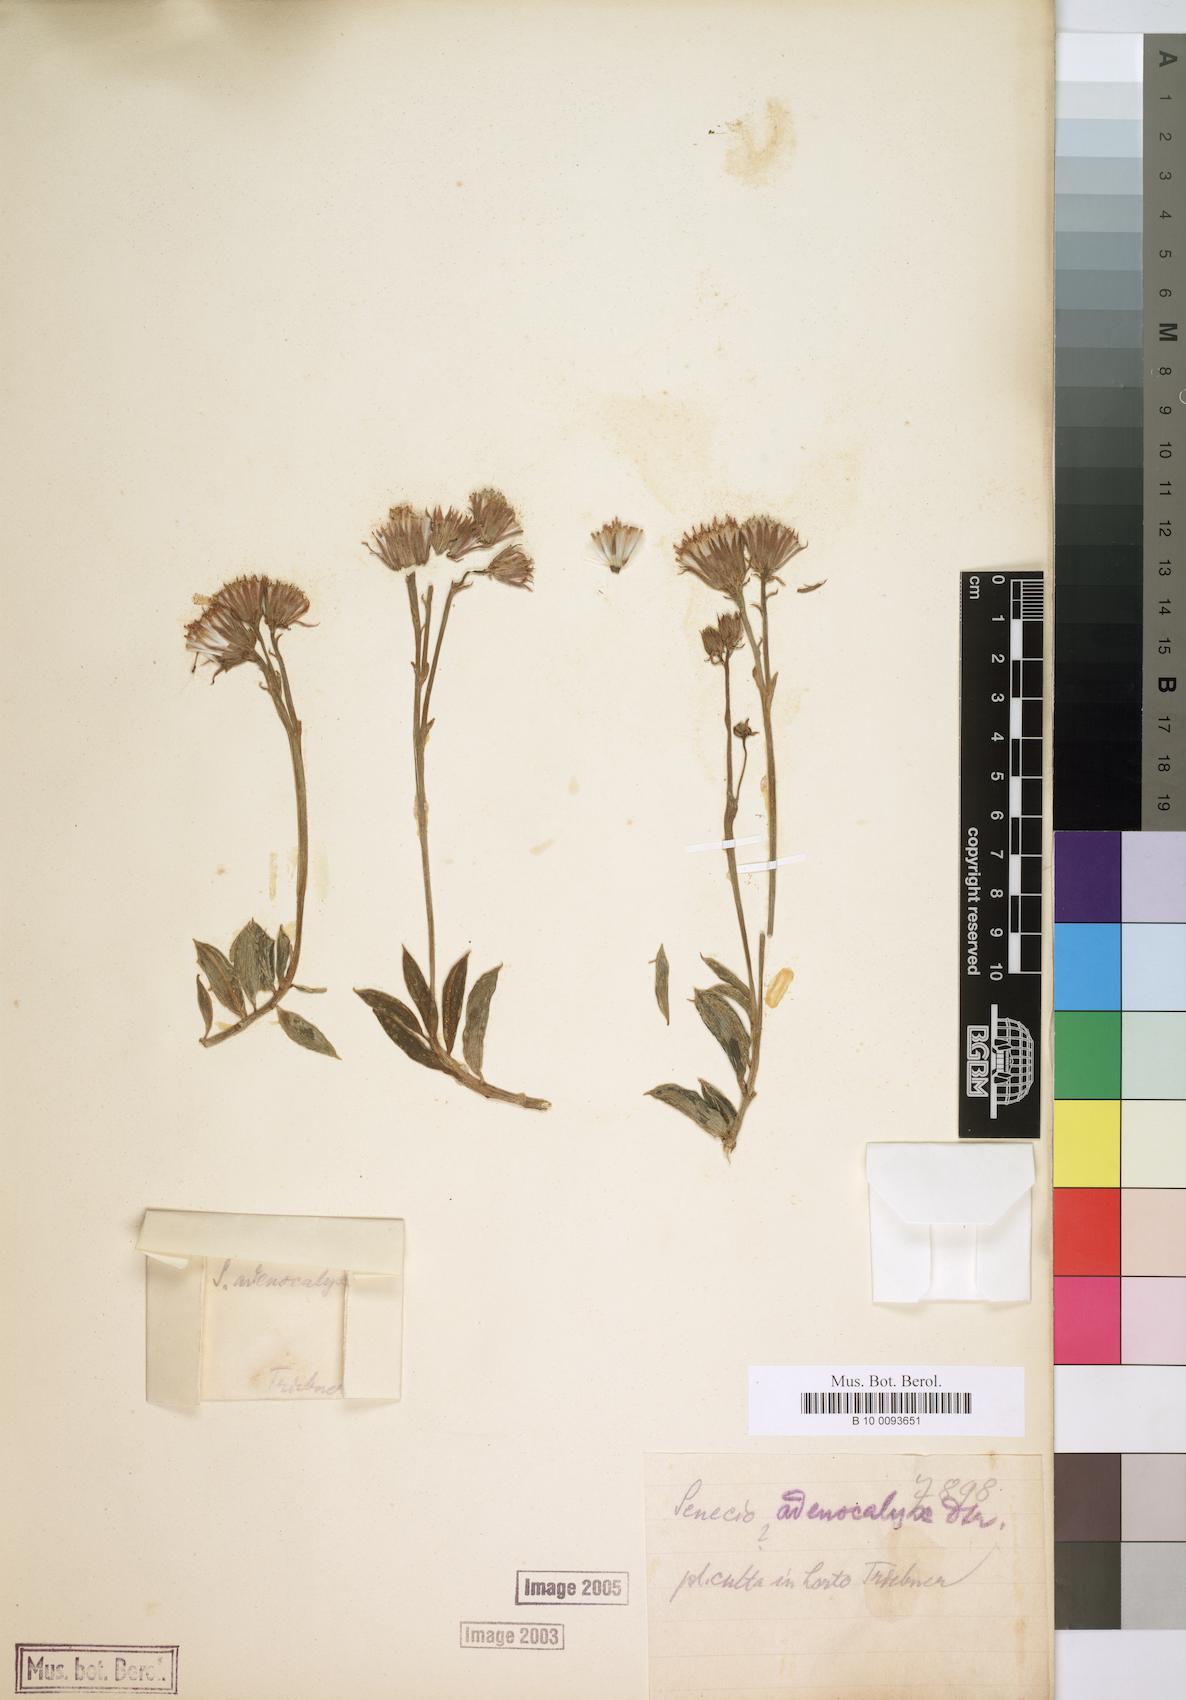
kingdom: Plantae
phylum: Tracheophyta
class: Magnoliopsida
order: Asterales
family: Asteraceae
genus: Curio
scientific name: Curio radicans
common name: Creeping-berry
